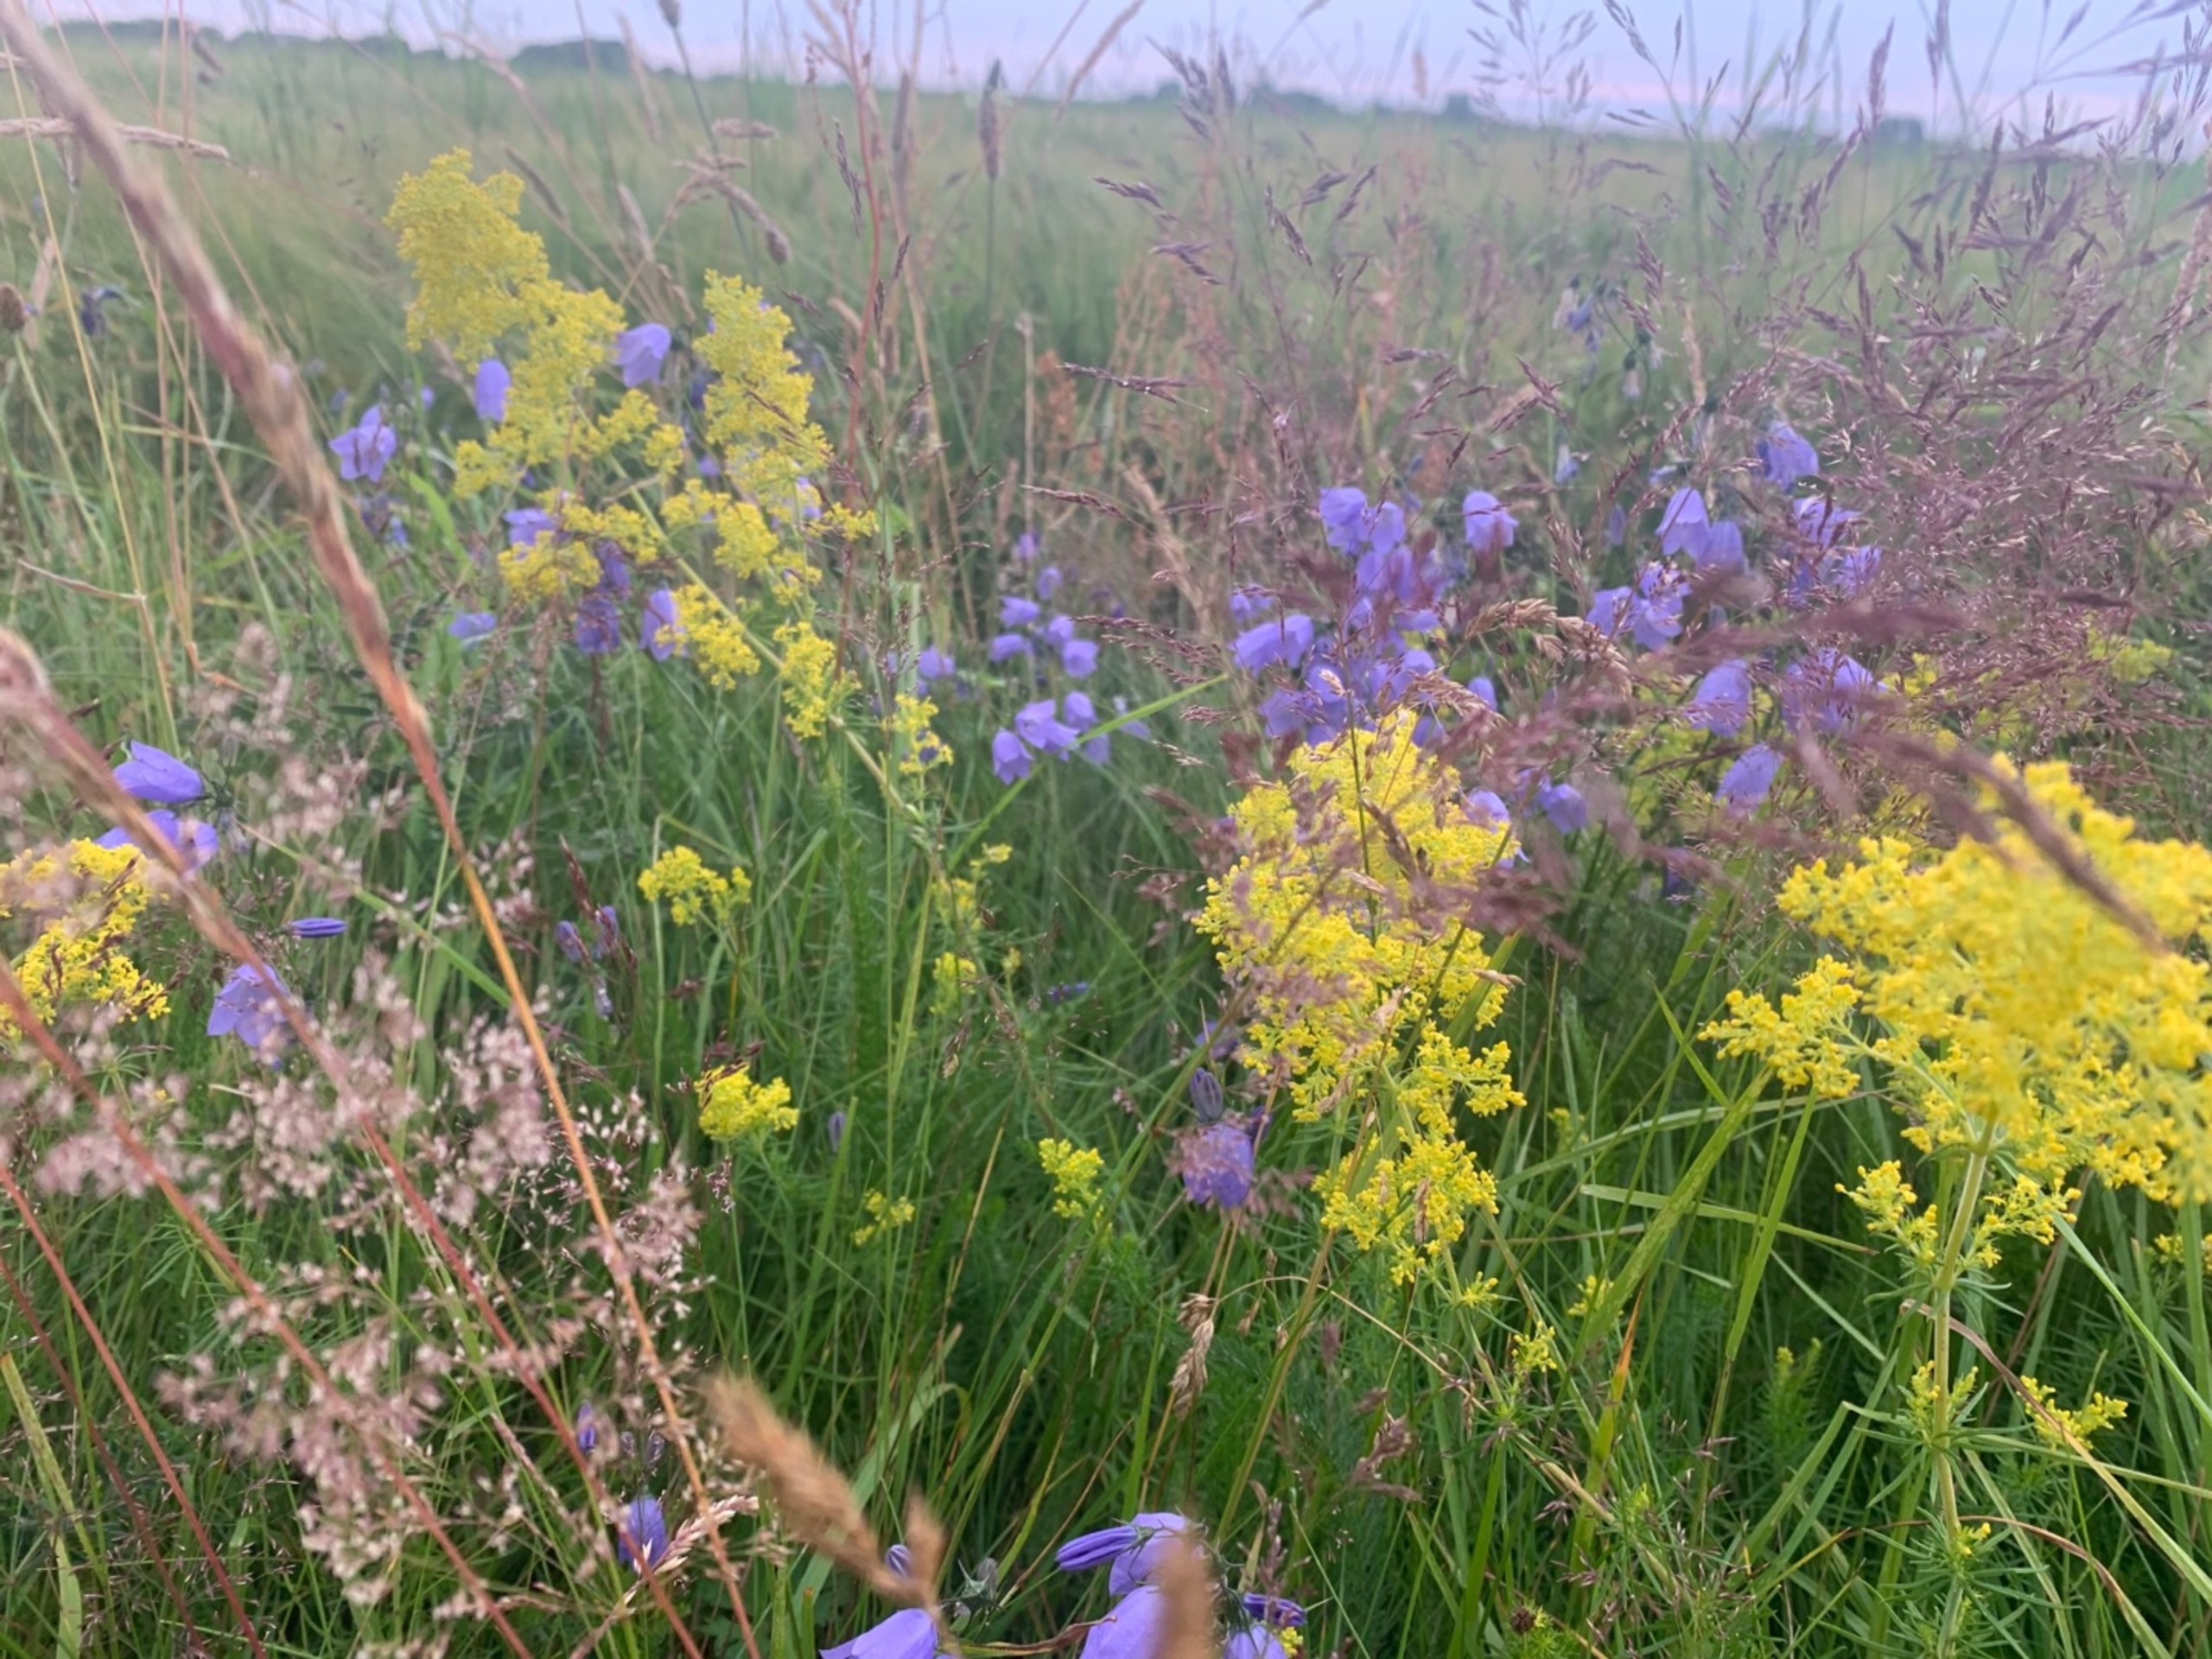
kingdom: Plantae
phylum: Tracheophyta
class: Magnoliopsida
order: Asterales
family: Campanulaceae
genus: Campanula
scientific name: Campanula rotundifolia
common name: Liden klokke
